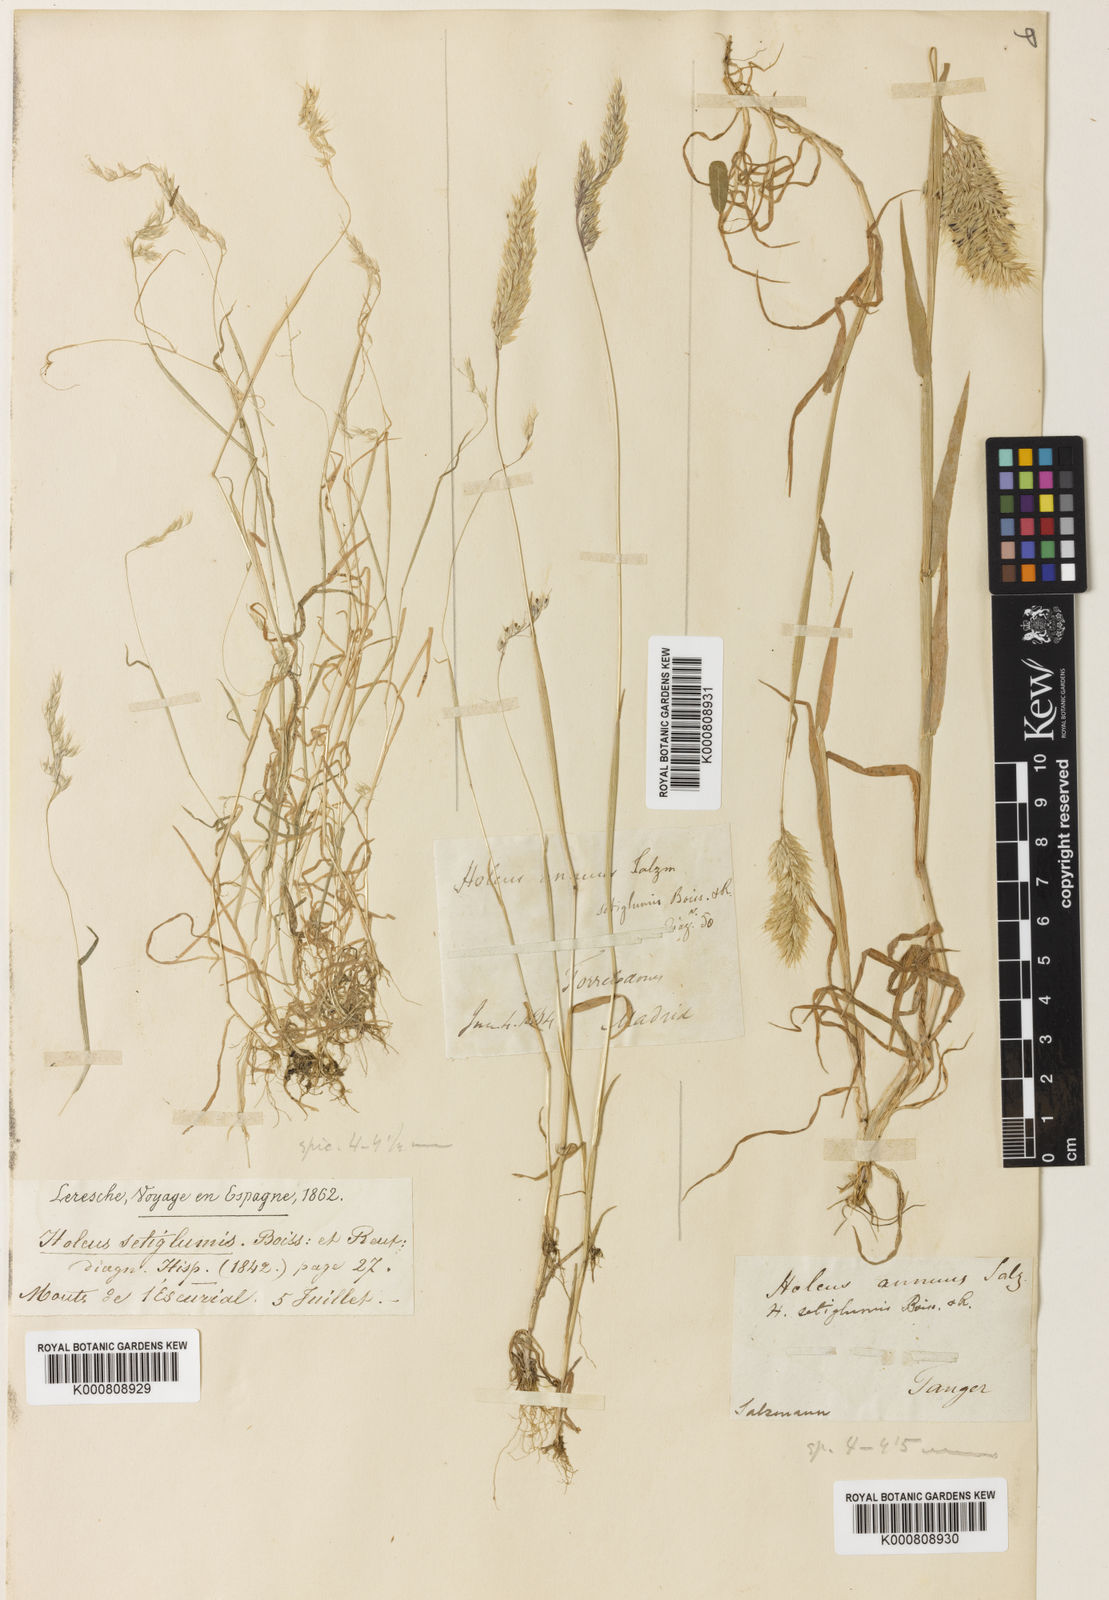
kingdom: Plantae
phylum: Tracheophyta
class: Liliopsida
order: Poales
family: Poaceae
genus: Holcus
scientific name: Holcus annuus
